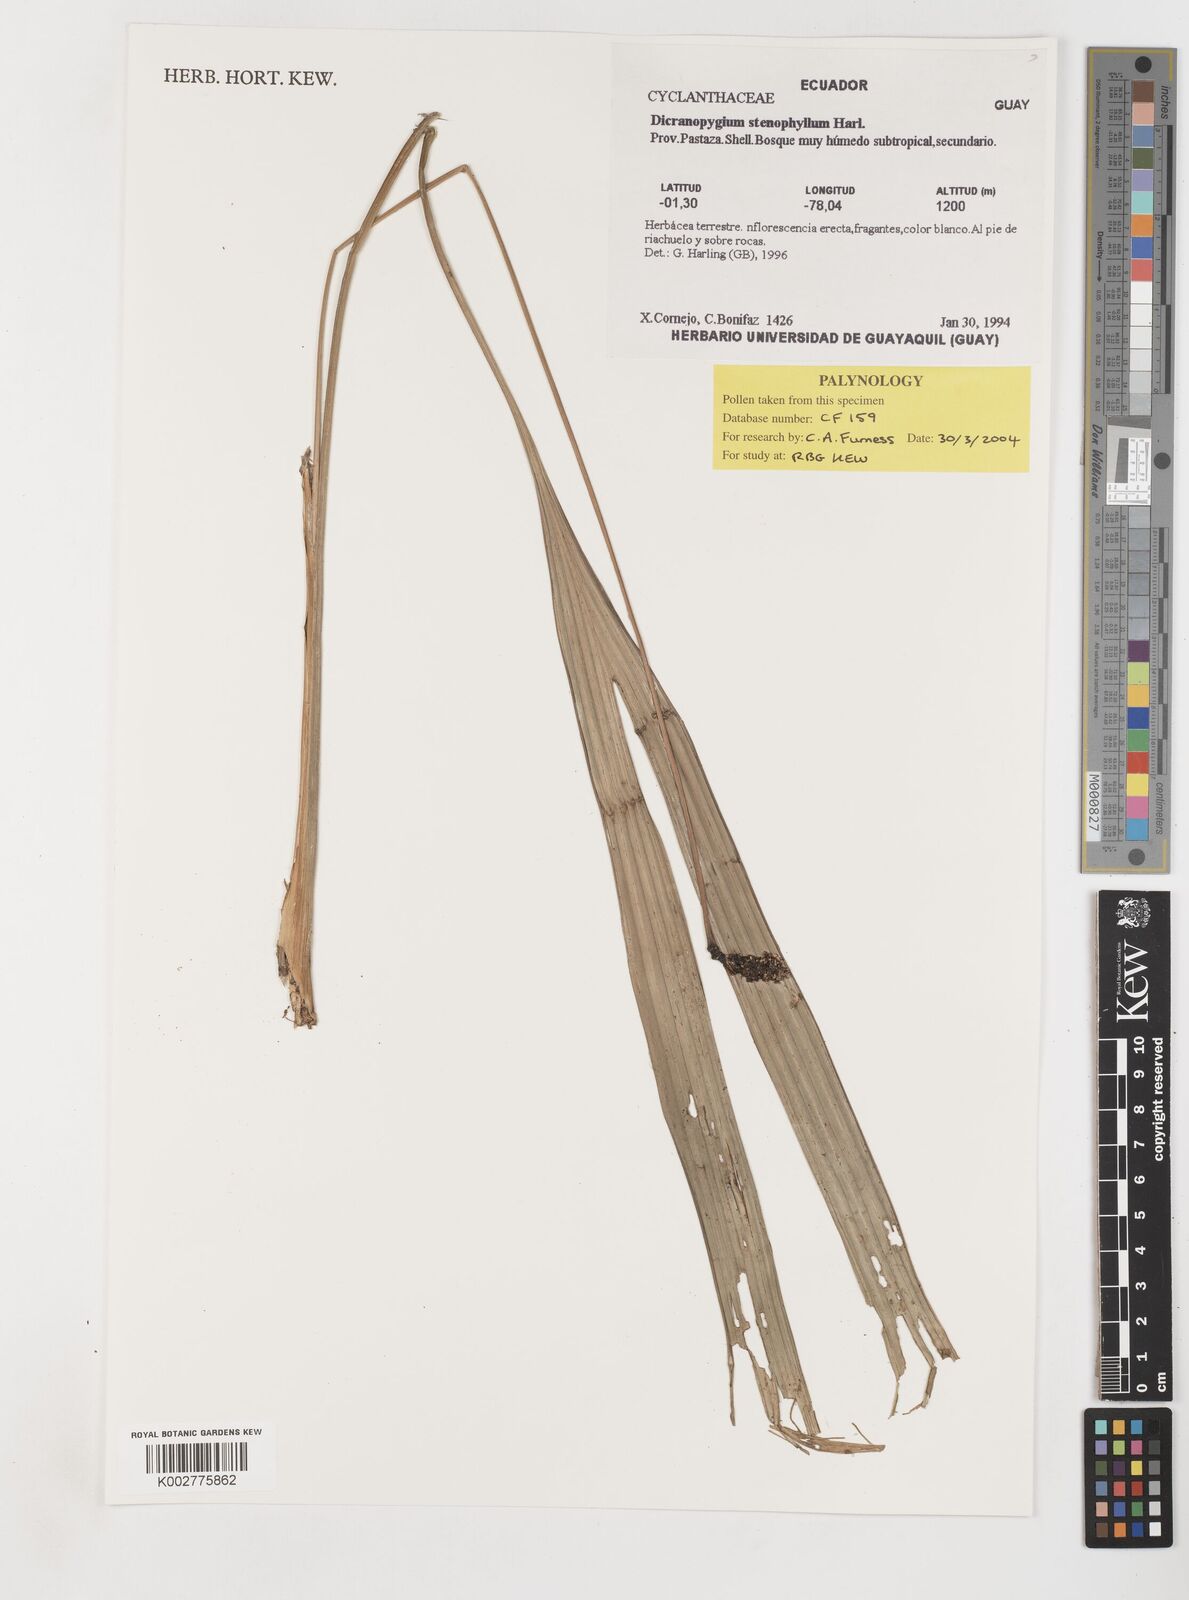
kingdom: Plantae
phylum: Tracheophyta
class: Liliopsida
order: Pandanales
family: Cyclanthaceae
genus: Dicranopygium
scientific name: Dicranopygium stenophyllum
